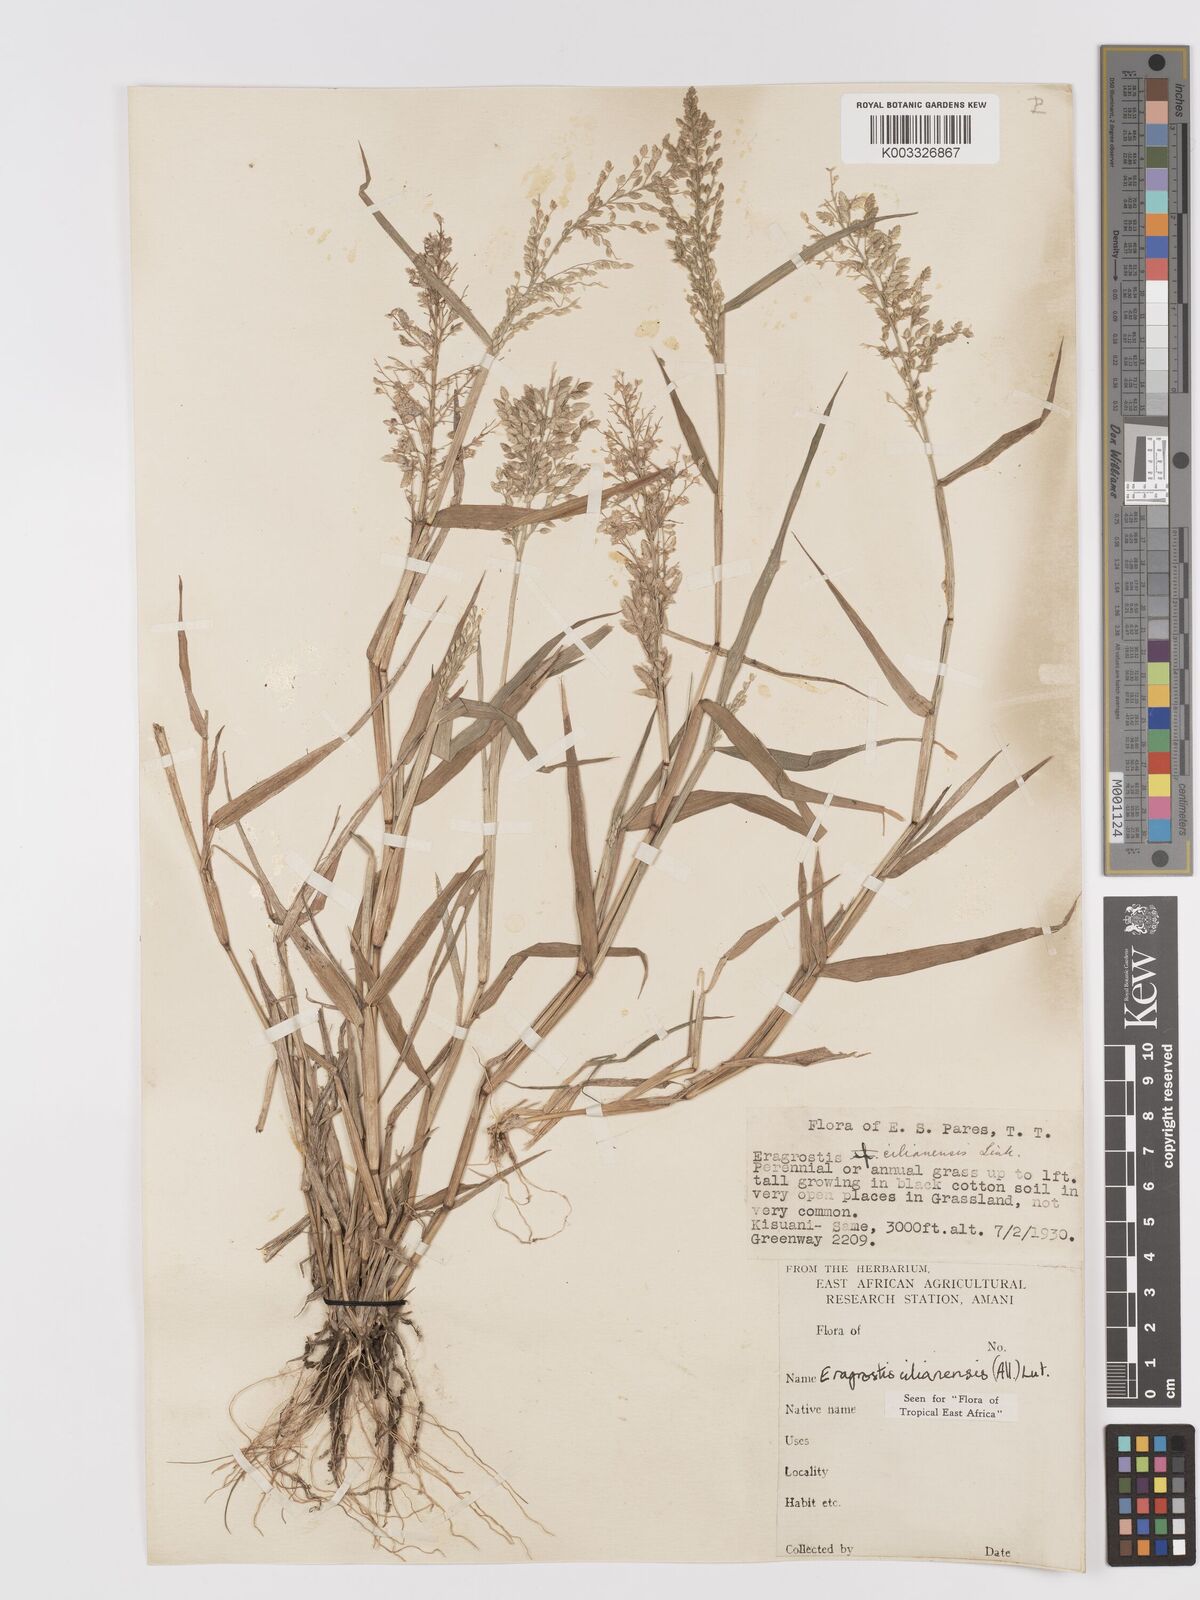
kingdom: Plantae
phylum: Tracheophyta
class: Liliopsida
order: Poales
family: Poaceae
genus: Eragrostis
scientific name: Eragrostis cilianensis
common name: Stinkgrass
